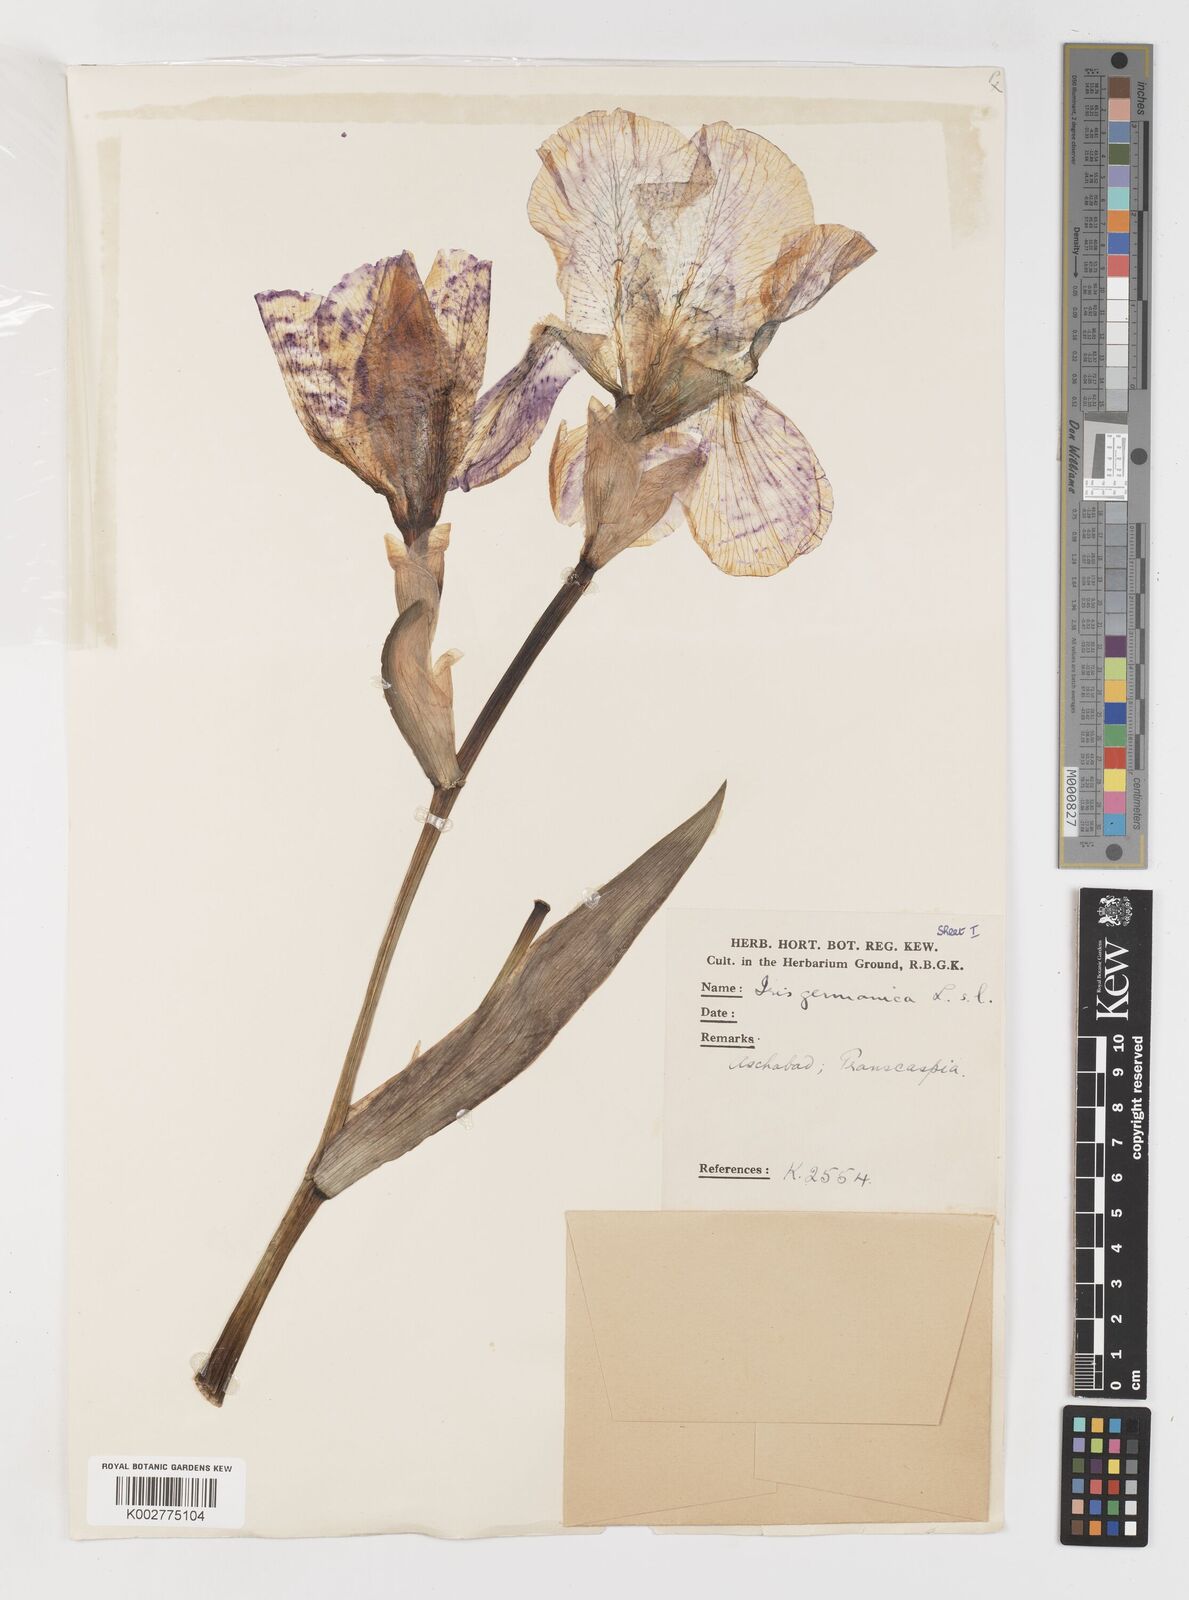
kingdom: Plantae
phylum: Tracheophyta
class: Liliopsida
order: Asparagales
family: Iridaceae
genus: Iris
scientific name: Iris germanica
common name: German iris
